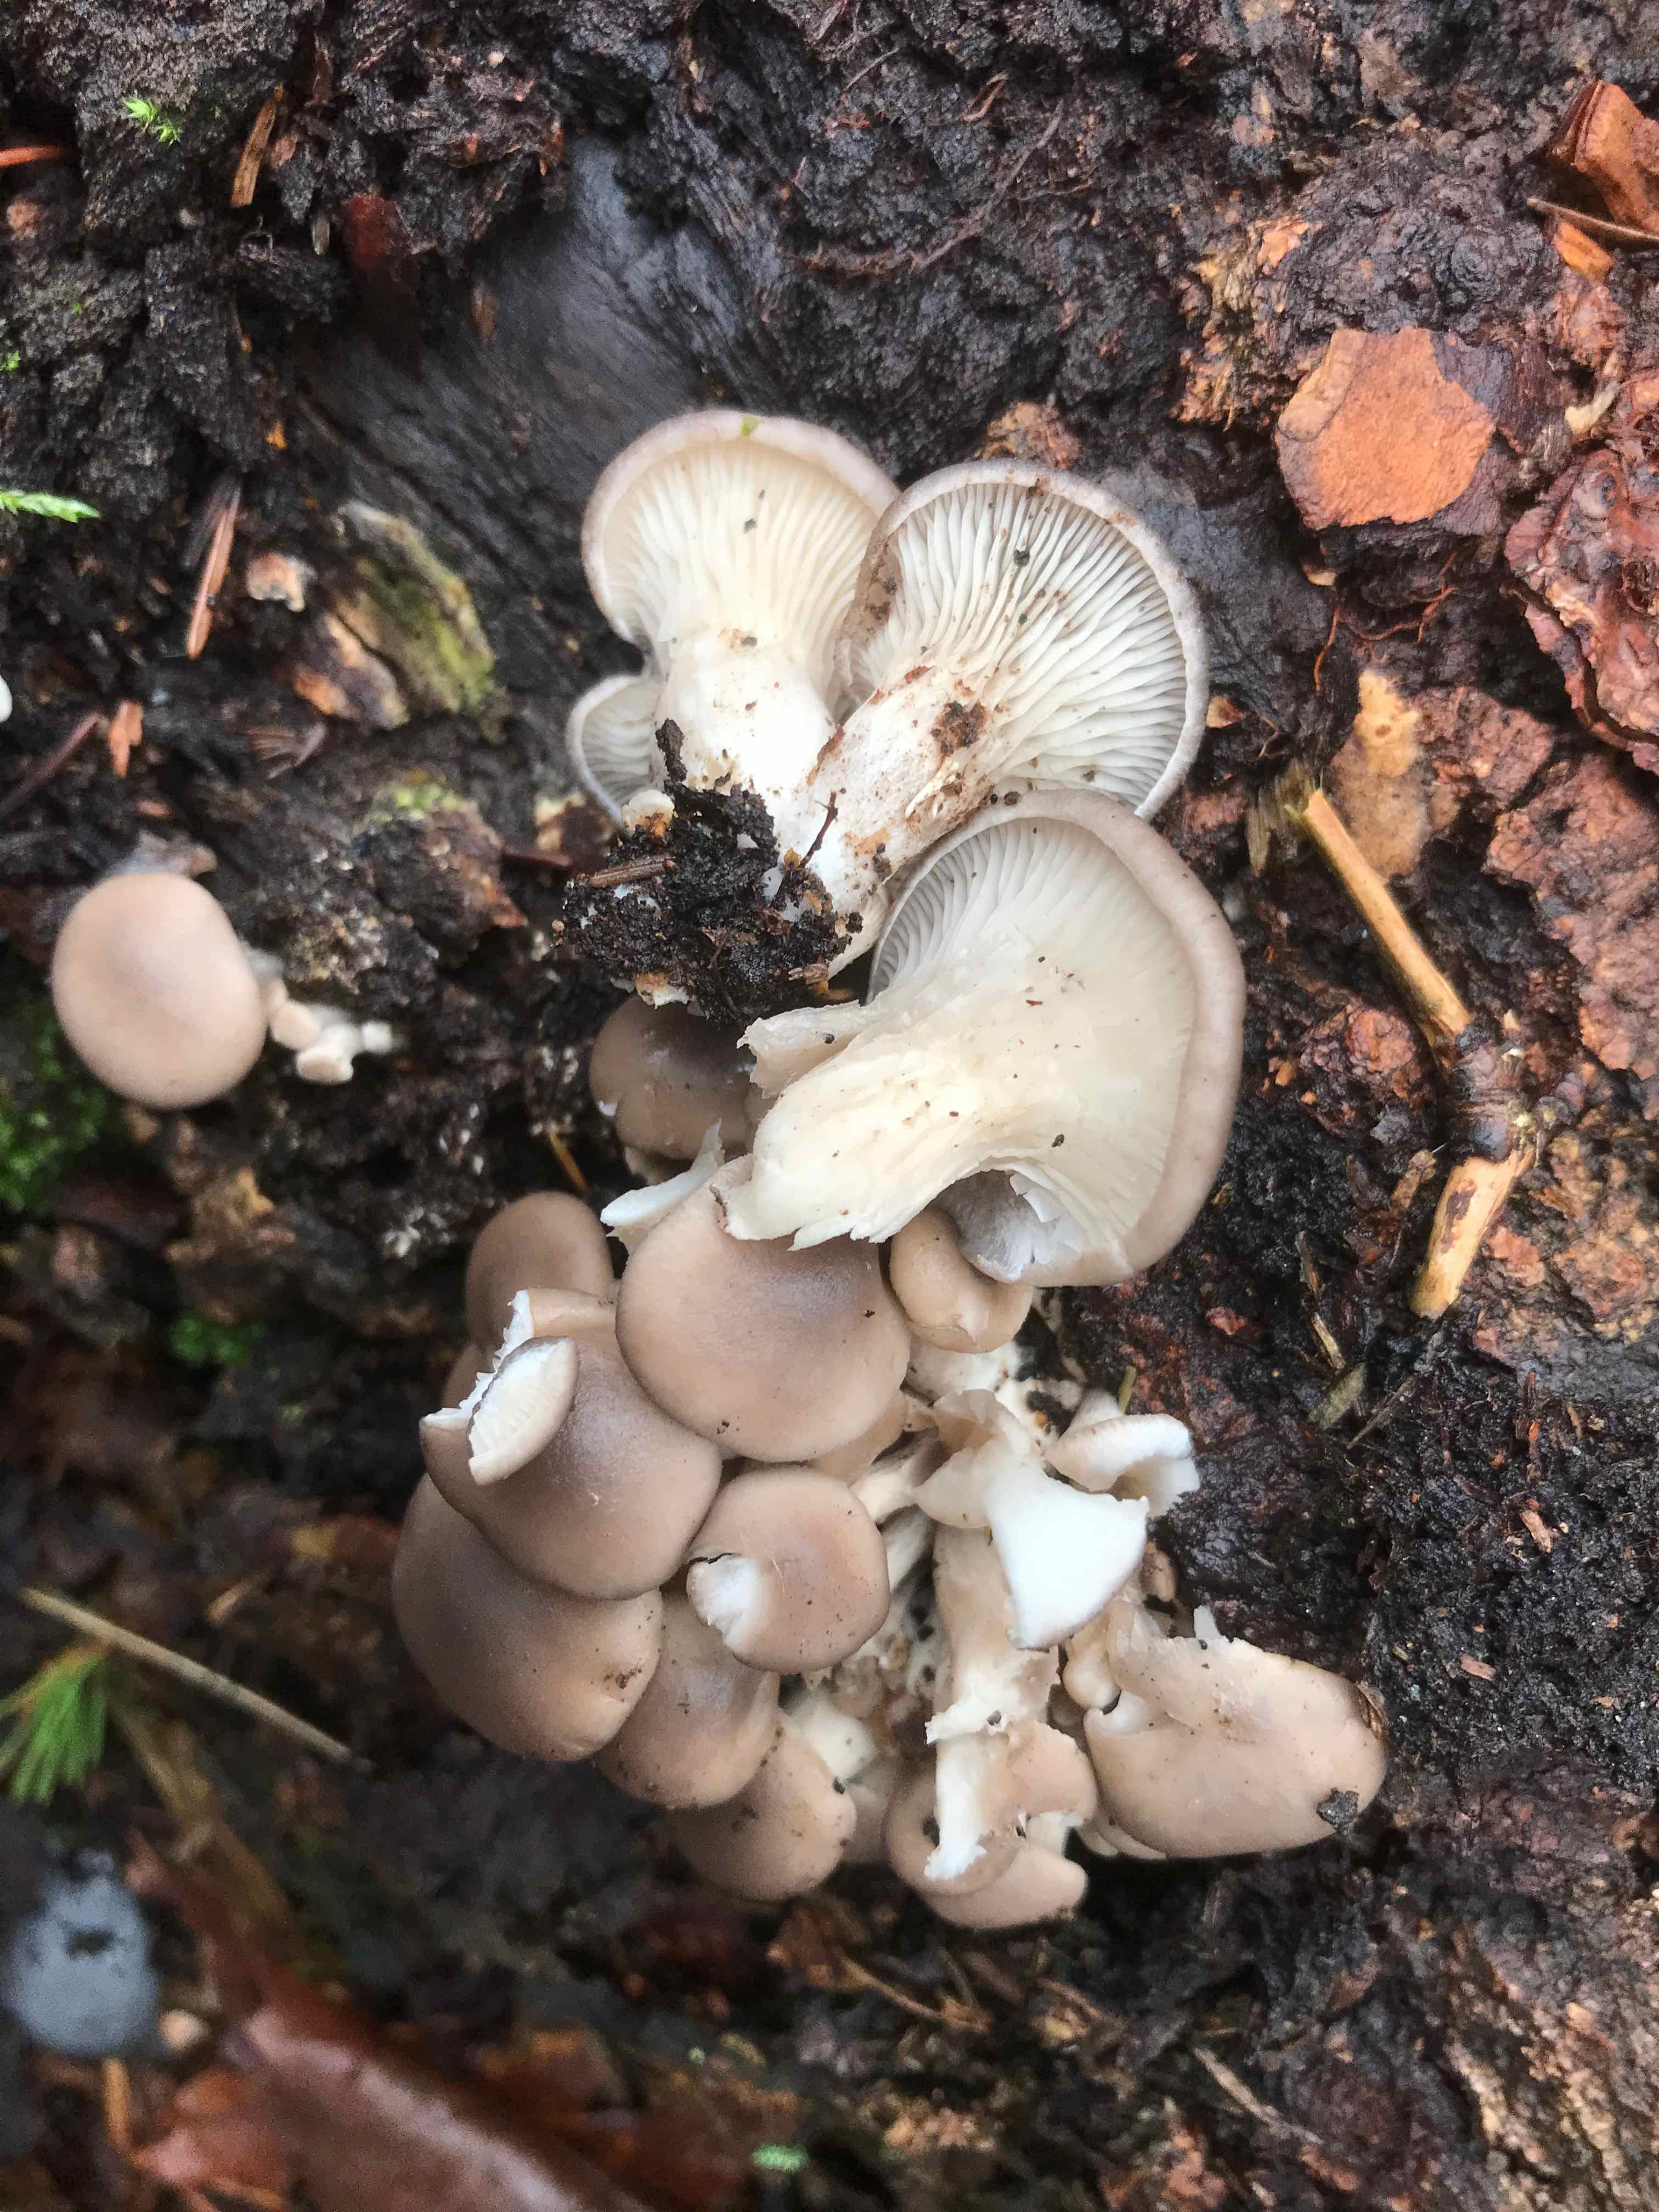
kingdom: Fungi
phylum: Basidiomycota
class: Agaricomycetes
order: Agaricales
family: Pleurotaceae
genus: Pleurotus
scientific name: Pleurotus ostreatus
